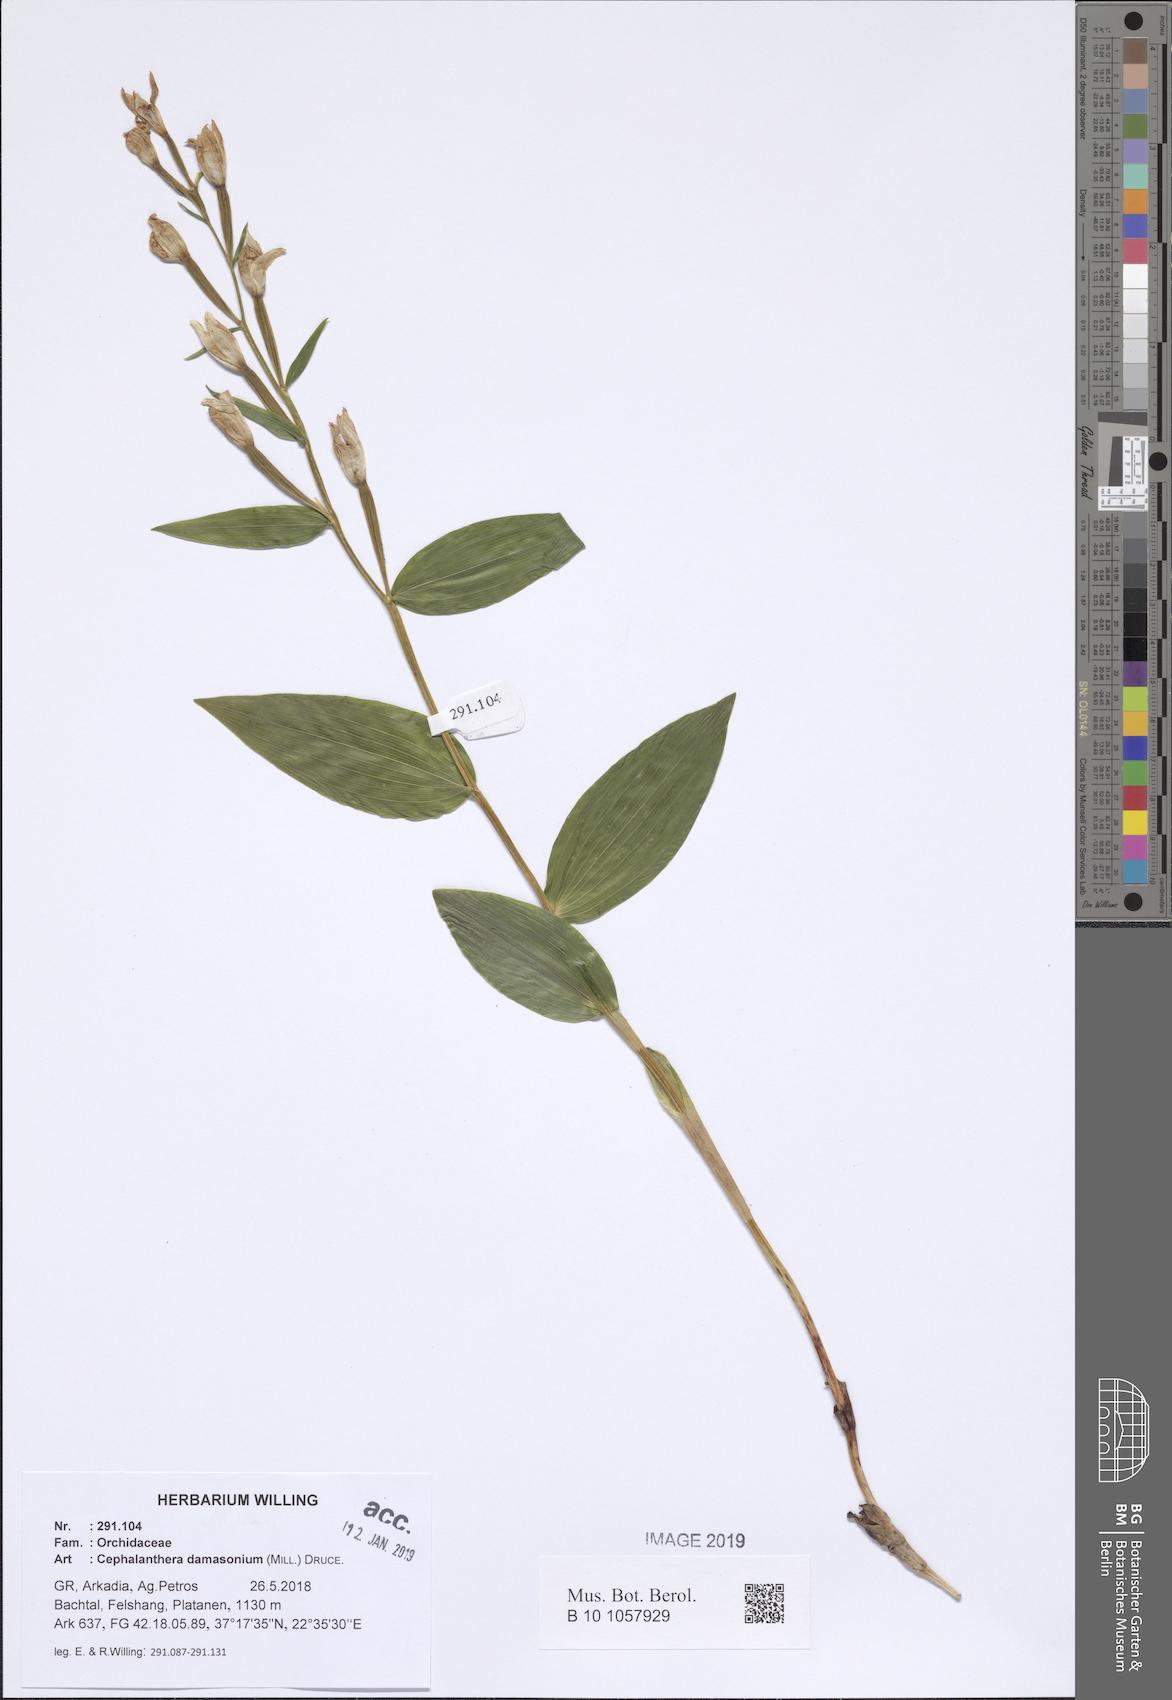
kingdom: Plantae
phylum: Tracheophyta
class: Liliopsida
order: Asparagales
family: Orchidaceae
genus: Cephalanthera
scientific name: Cephalanthera damasonium
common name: White helleborine
